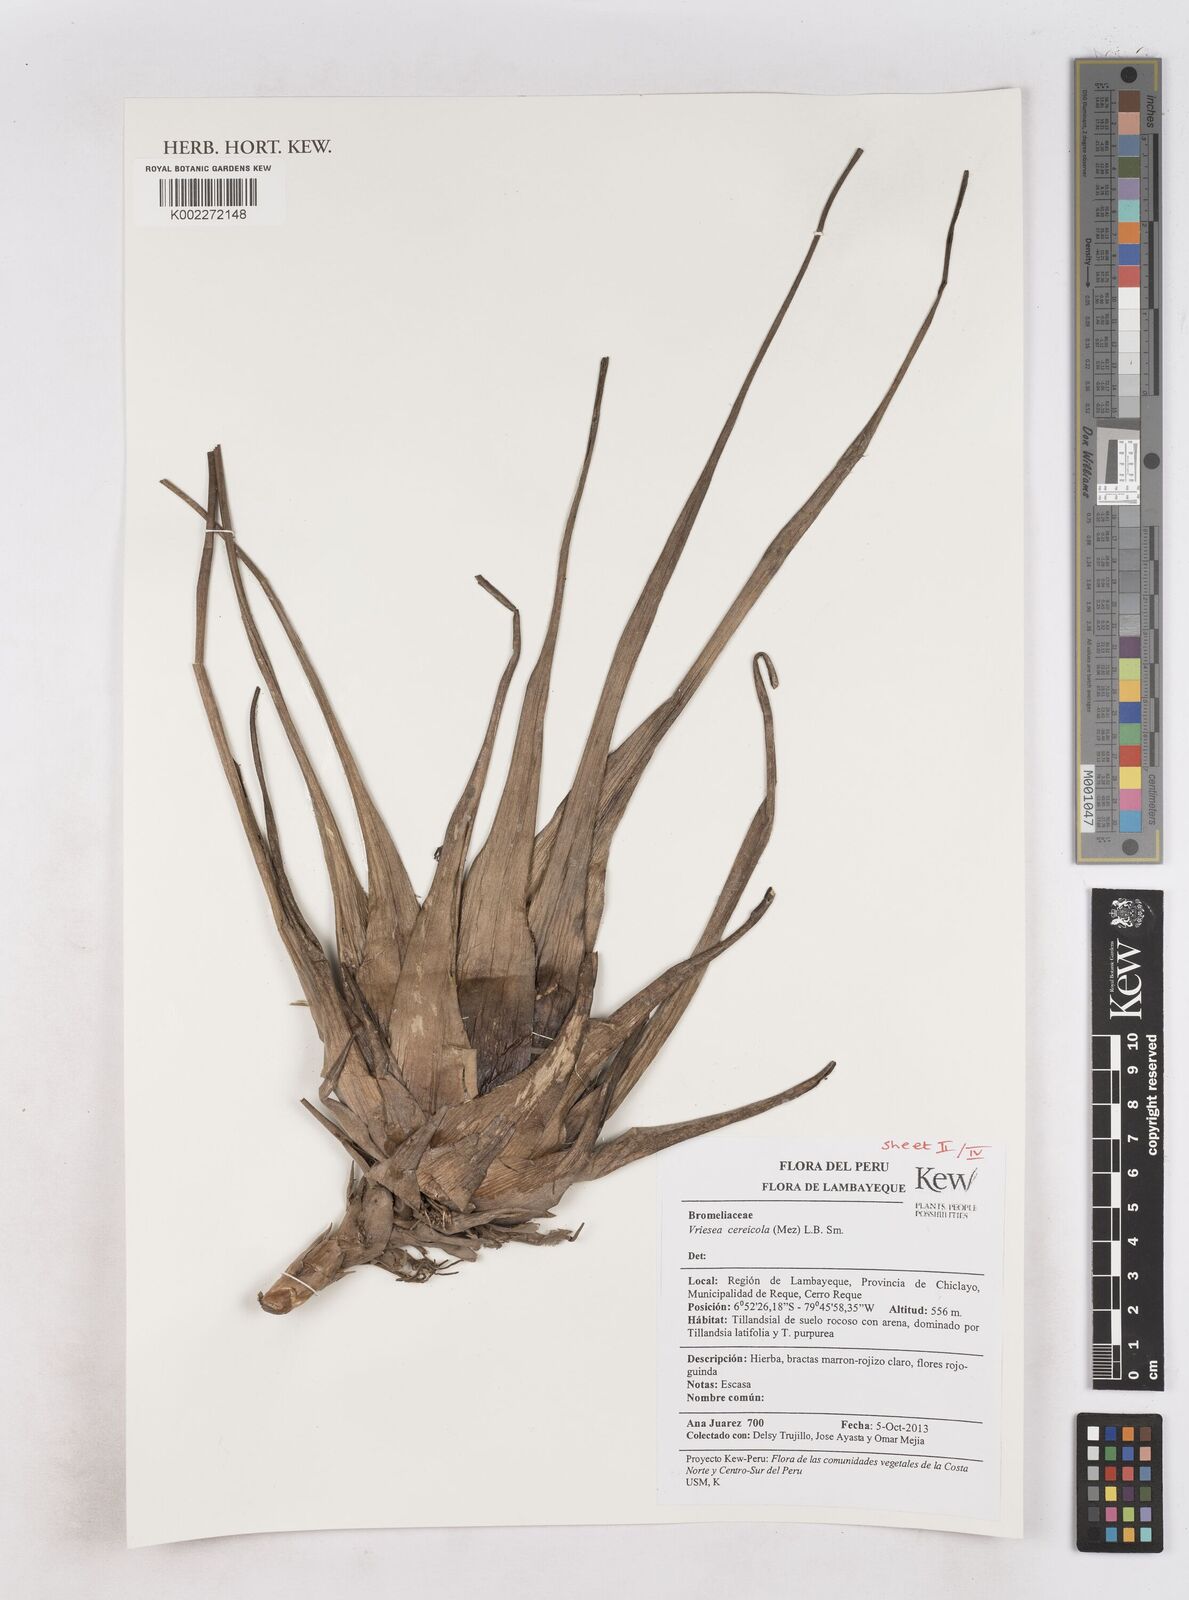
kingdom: Plantae
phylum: Tracheophyta
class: Liliopsida
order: Poales
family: Bromeliaceae
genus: Tillandsia
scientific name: Tillandsia barclayana
